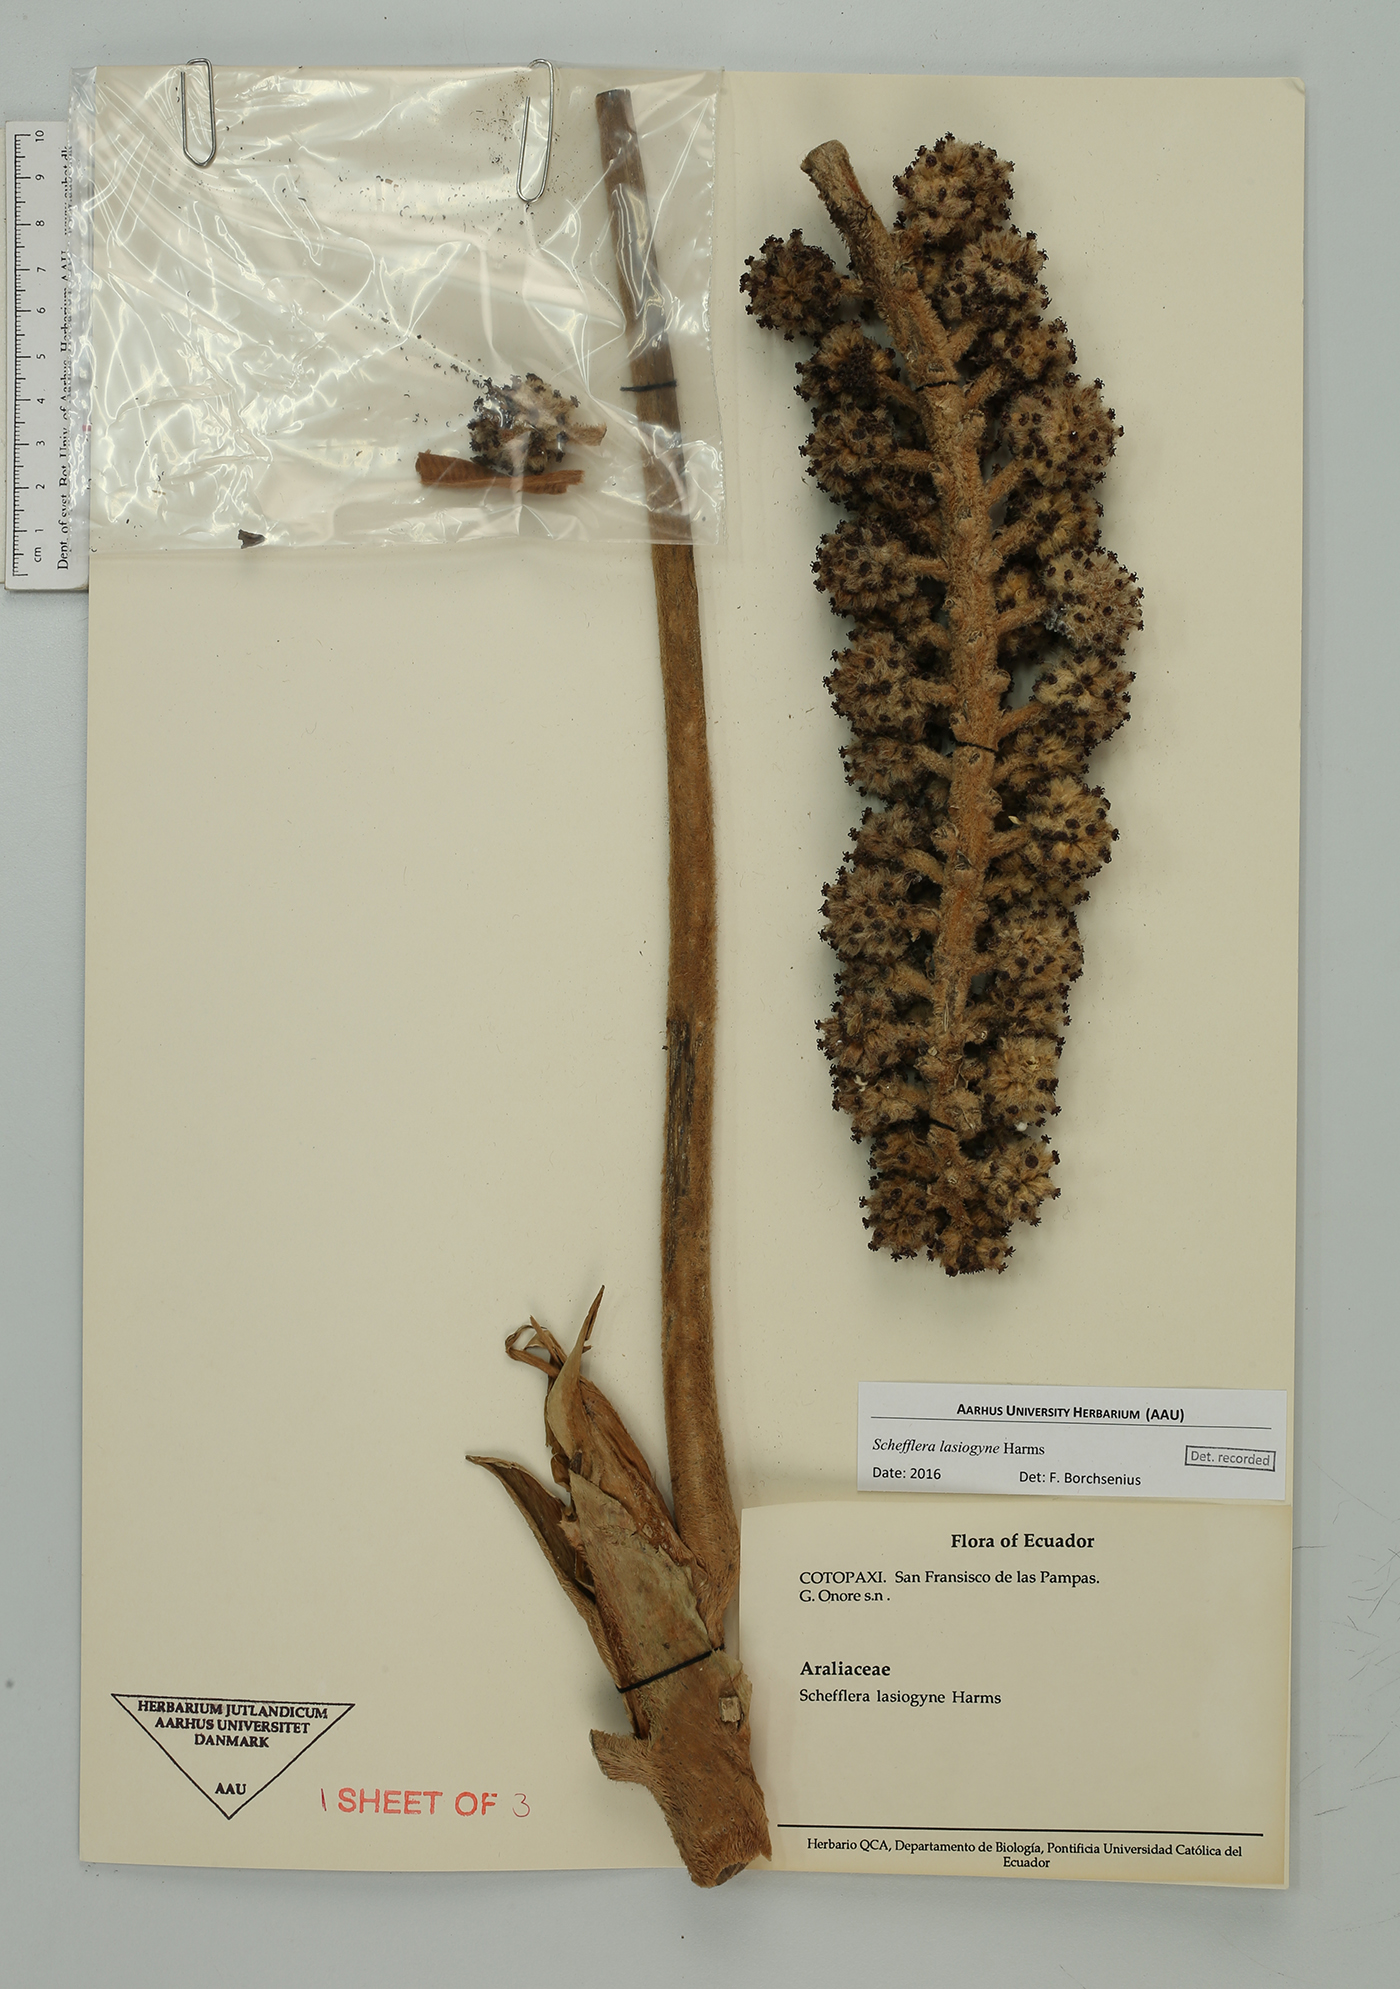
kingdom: Plantae
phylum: Tracheophyta
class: Magnoliopsida
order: Apiales
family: Araliaceae
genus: Sciodaphyllum
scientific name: Sciodaphyllum lasiogyne
